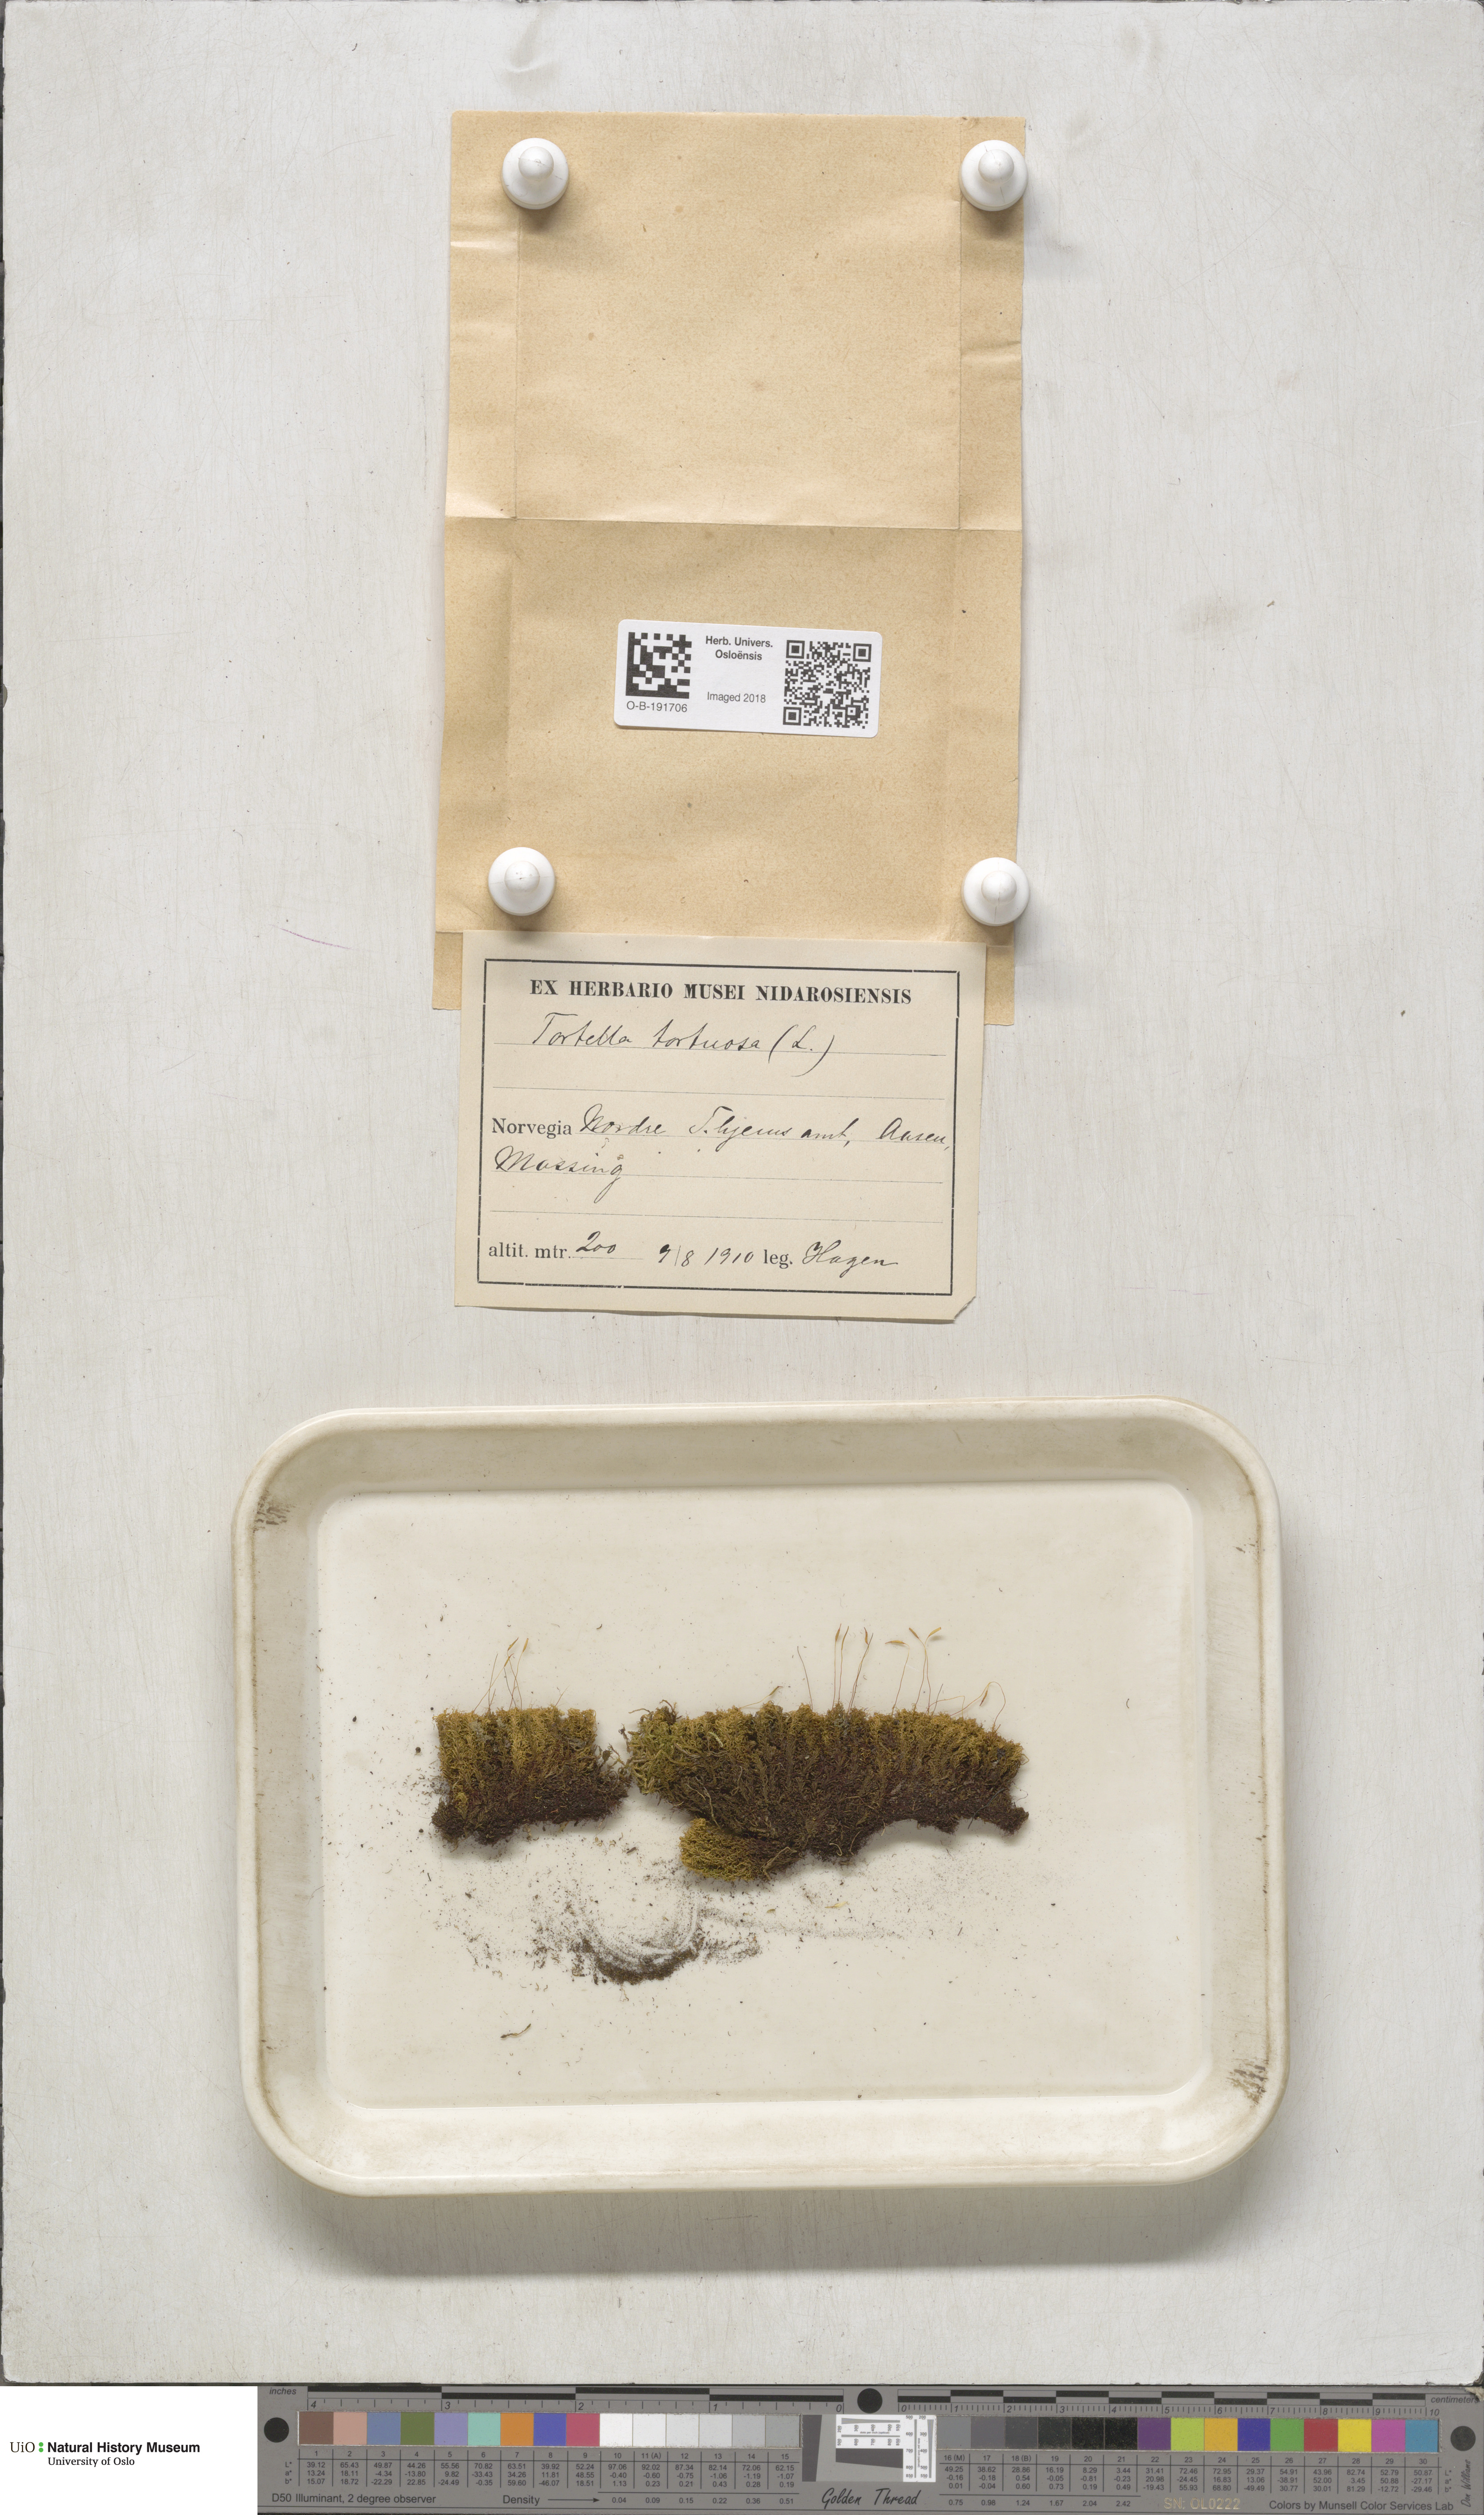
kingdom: Plantae
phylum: Bryophyta
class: Bryopsida
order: Pottiales
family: Pottiaceae
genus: Tortella
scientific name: Tortella tortuosa
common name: Frizzled crisp moss
